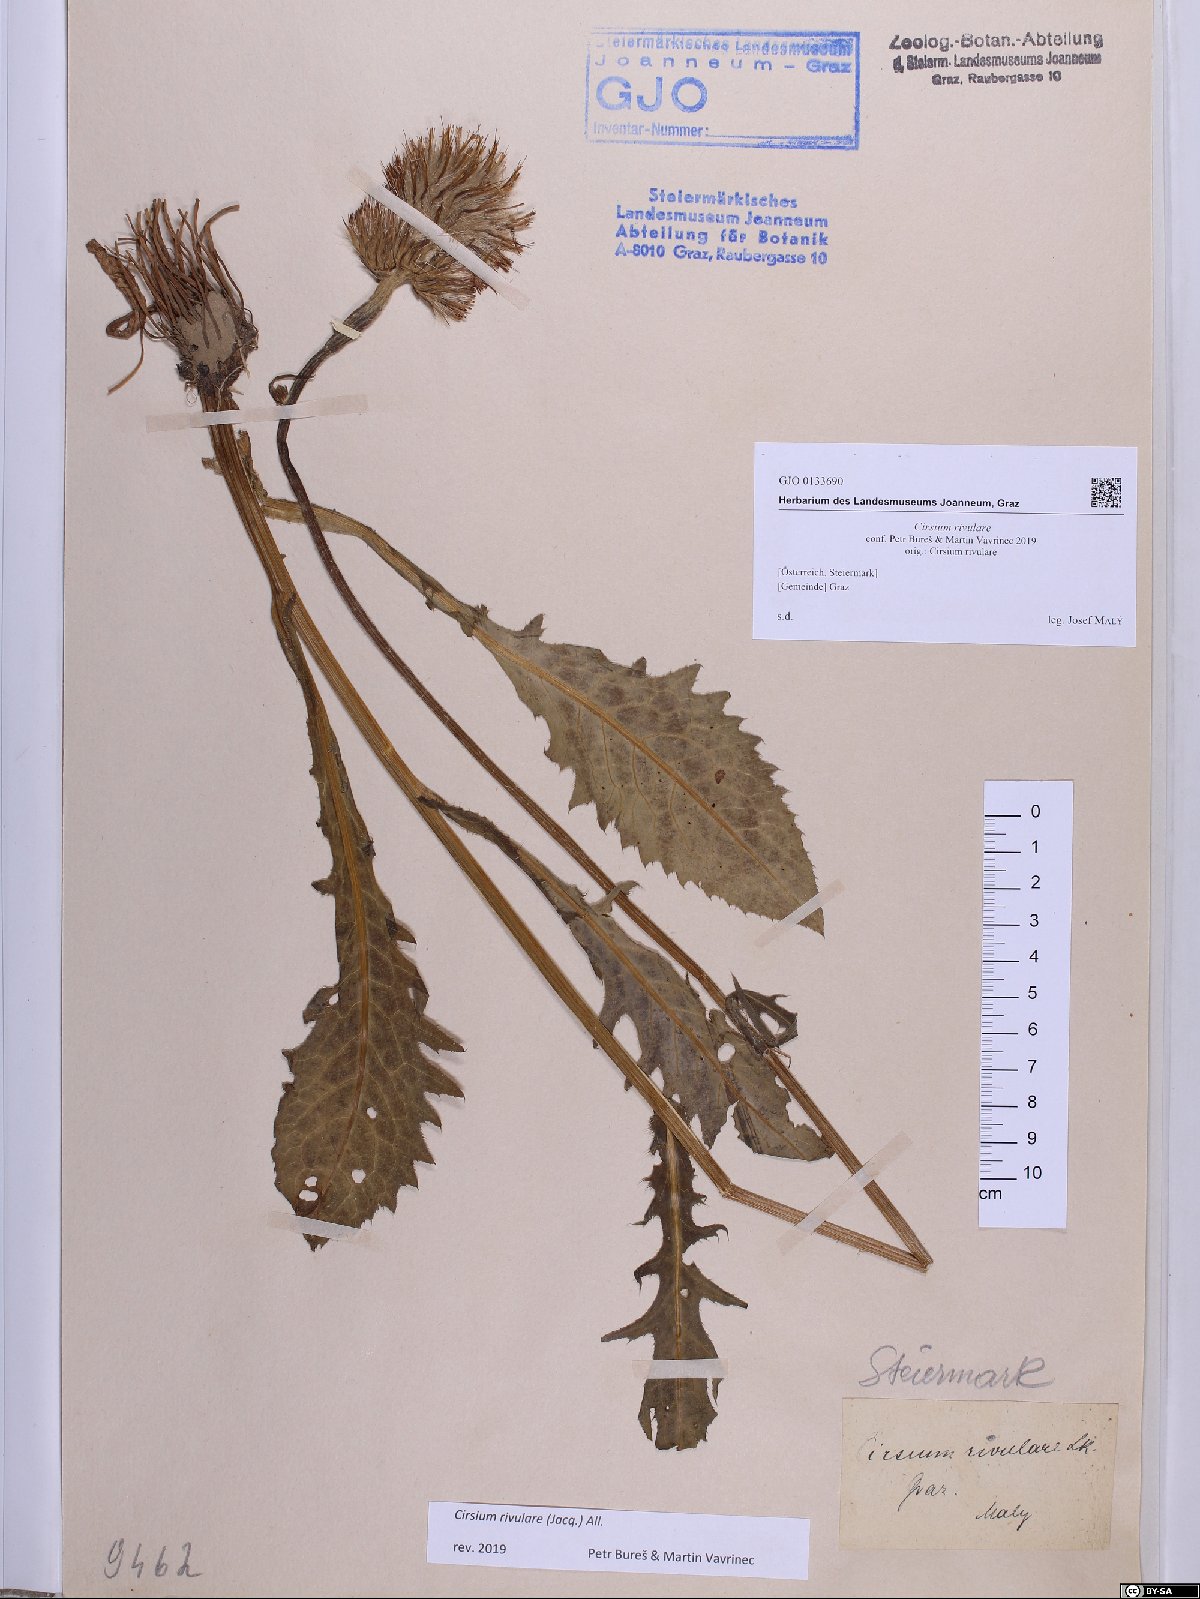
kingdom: Plantae
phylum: Tracheophyta
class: Magnoliopsida
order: Asterales
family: Asteraceae
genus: Cirsium
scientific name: Cirsium rivulare
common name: Brook thistle
